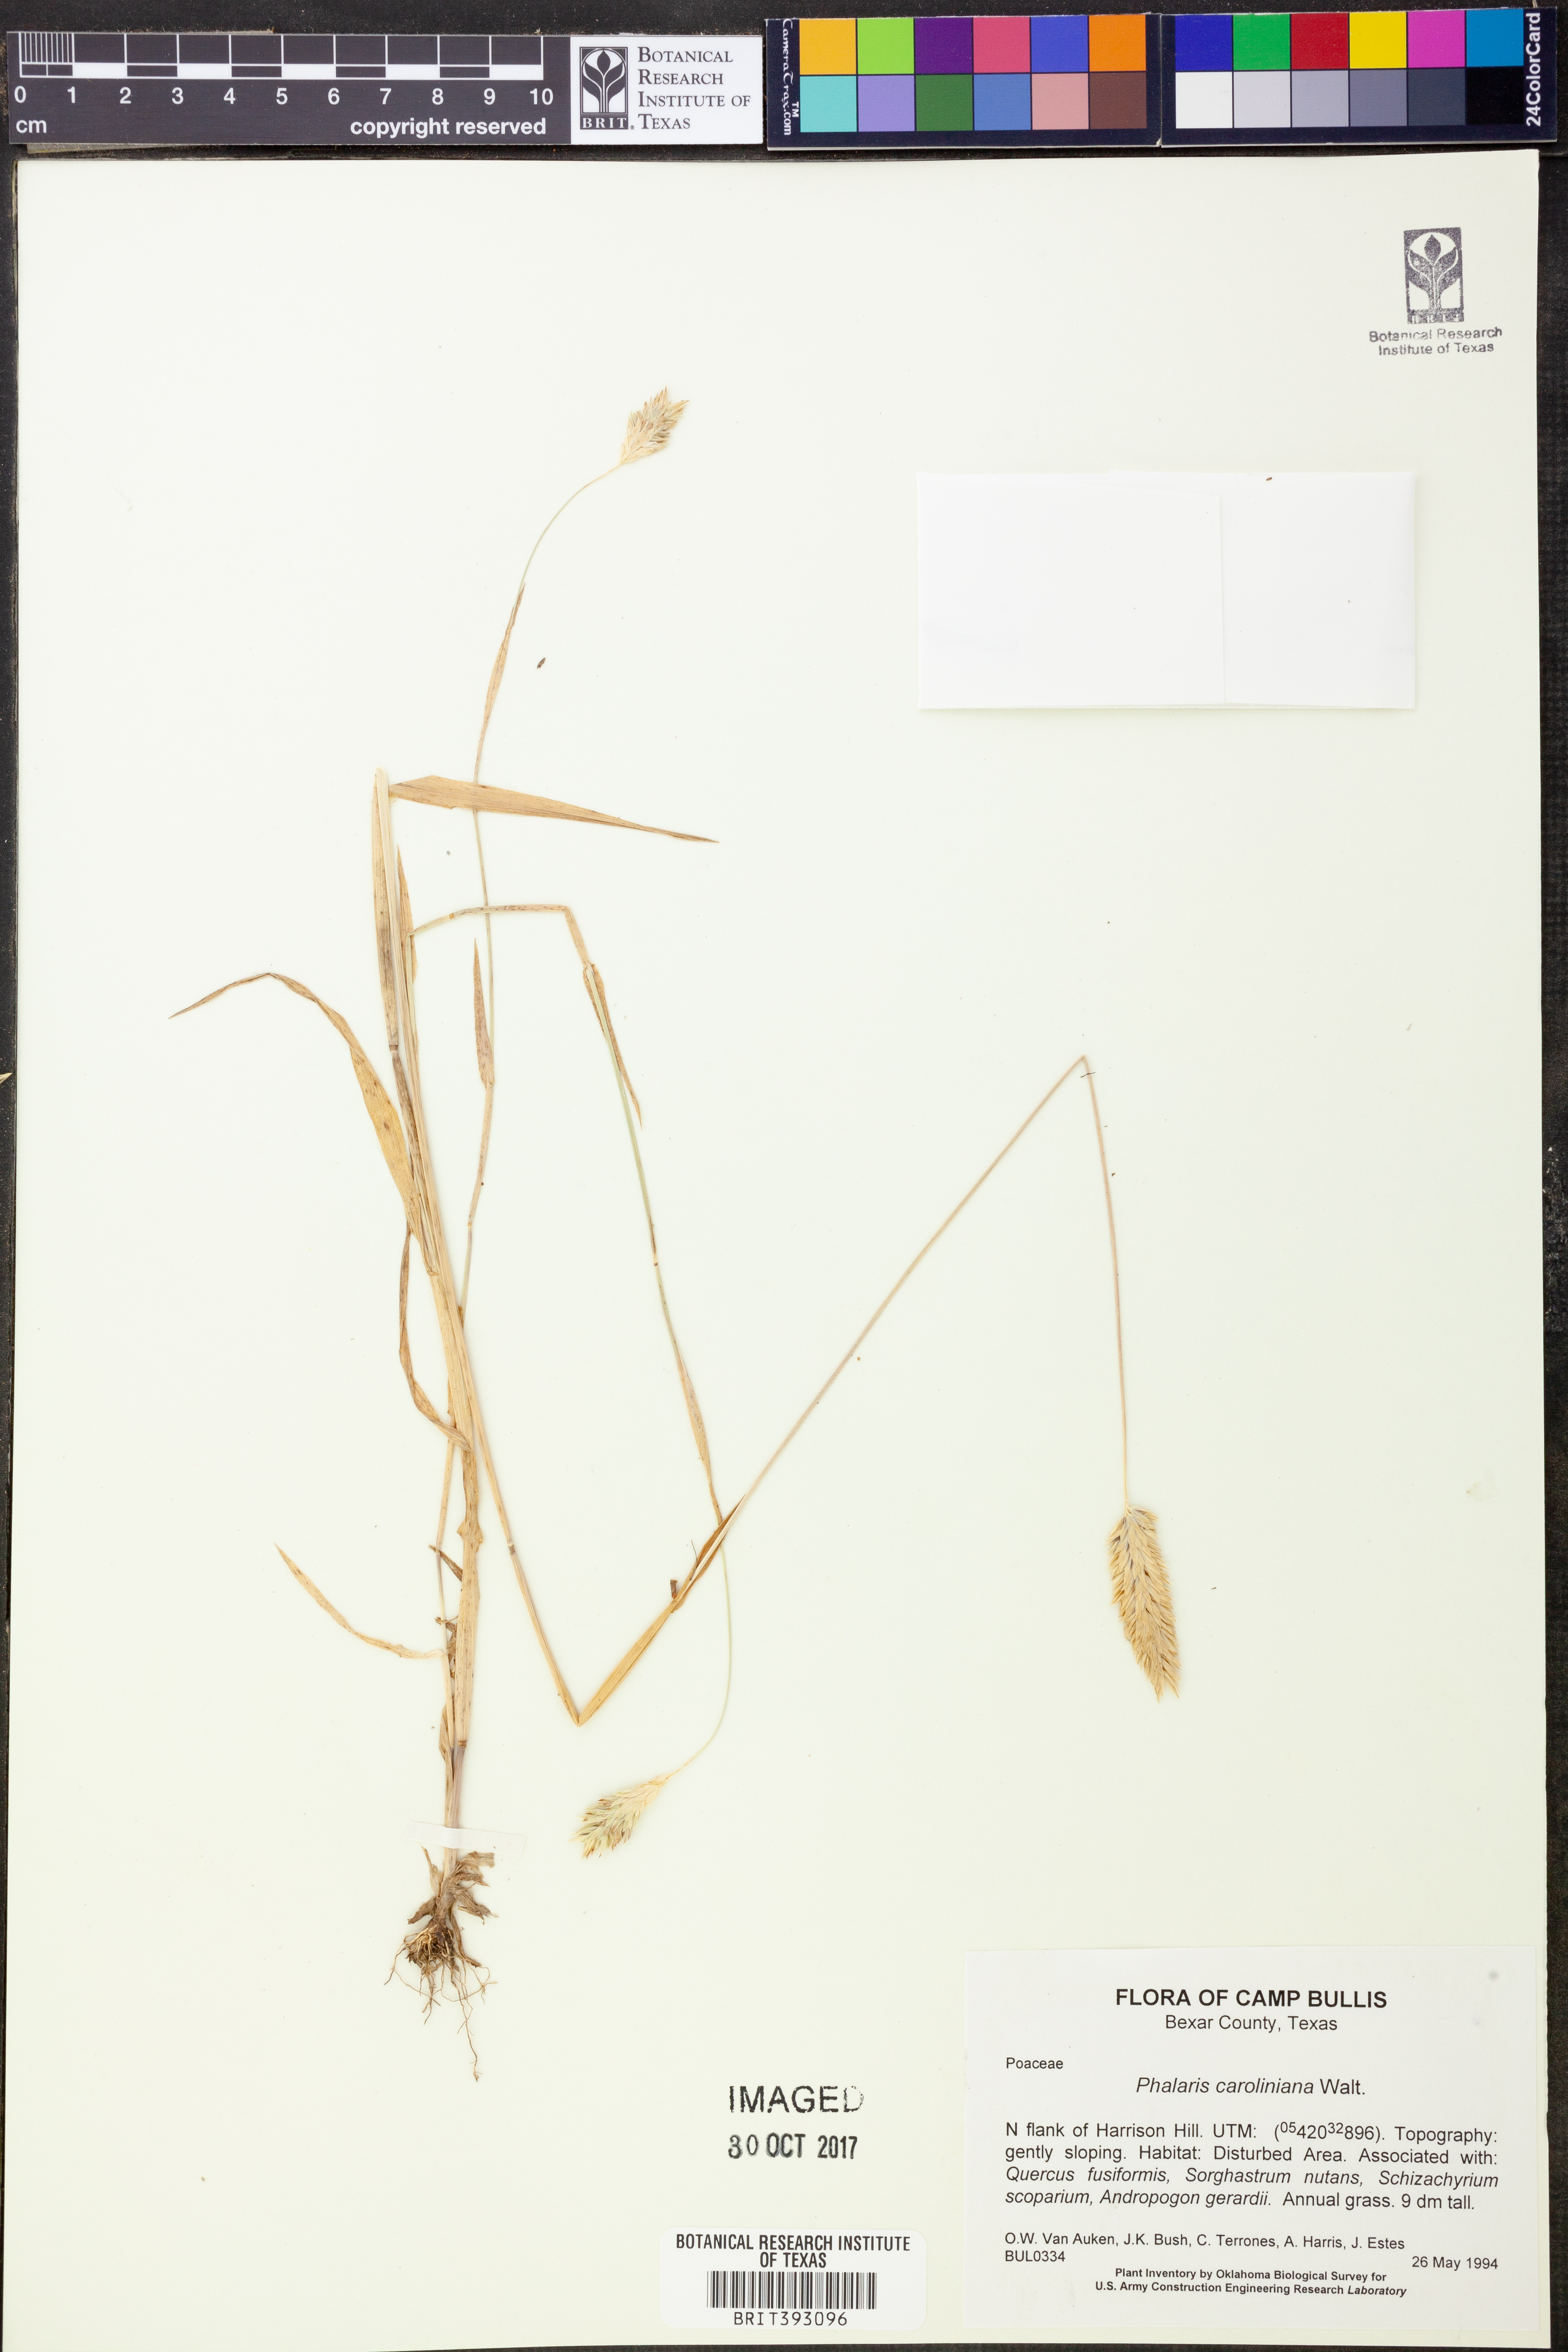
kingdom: Plantae
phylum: Tracheophyta
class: Liliopsida
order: Poales
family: Poaceae
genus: Phalaris
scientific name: Phalaris caroliniana
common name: May grass
